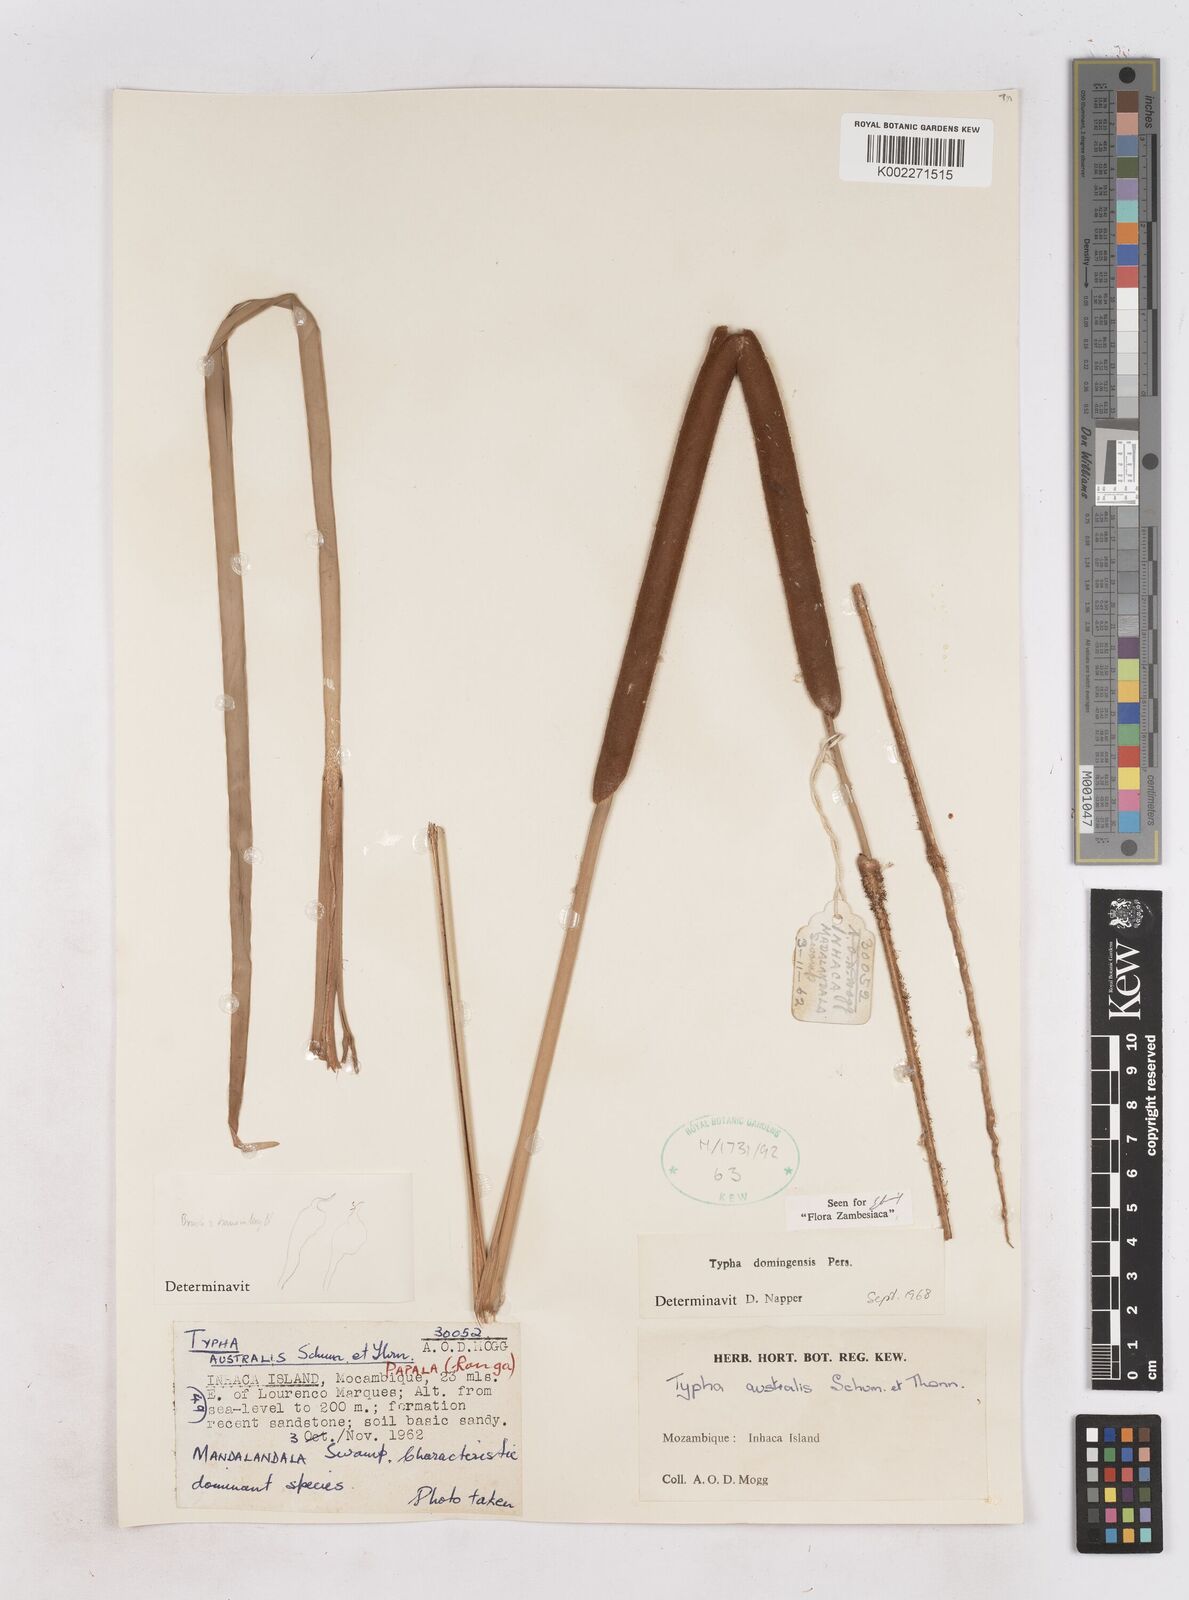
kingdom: Plantae
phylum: Tracheophyta
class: Liliopsida
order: Poales
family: Typhaceae
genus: Typha
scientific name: Typha domingensis
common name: Southern cattail
